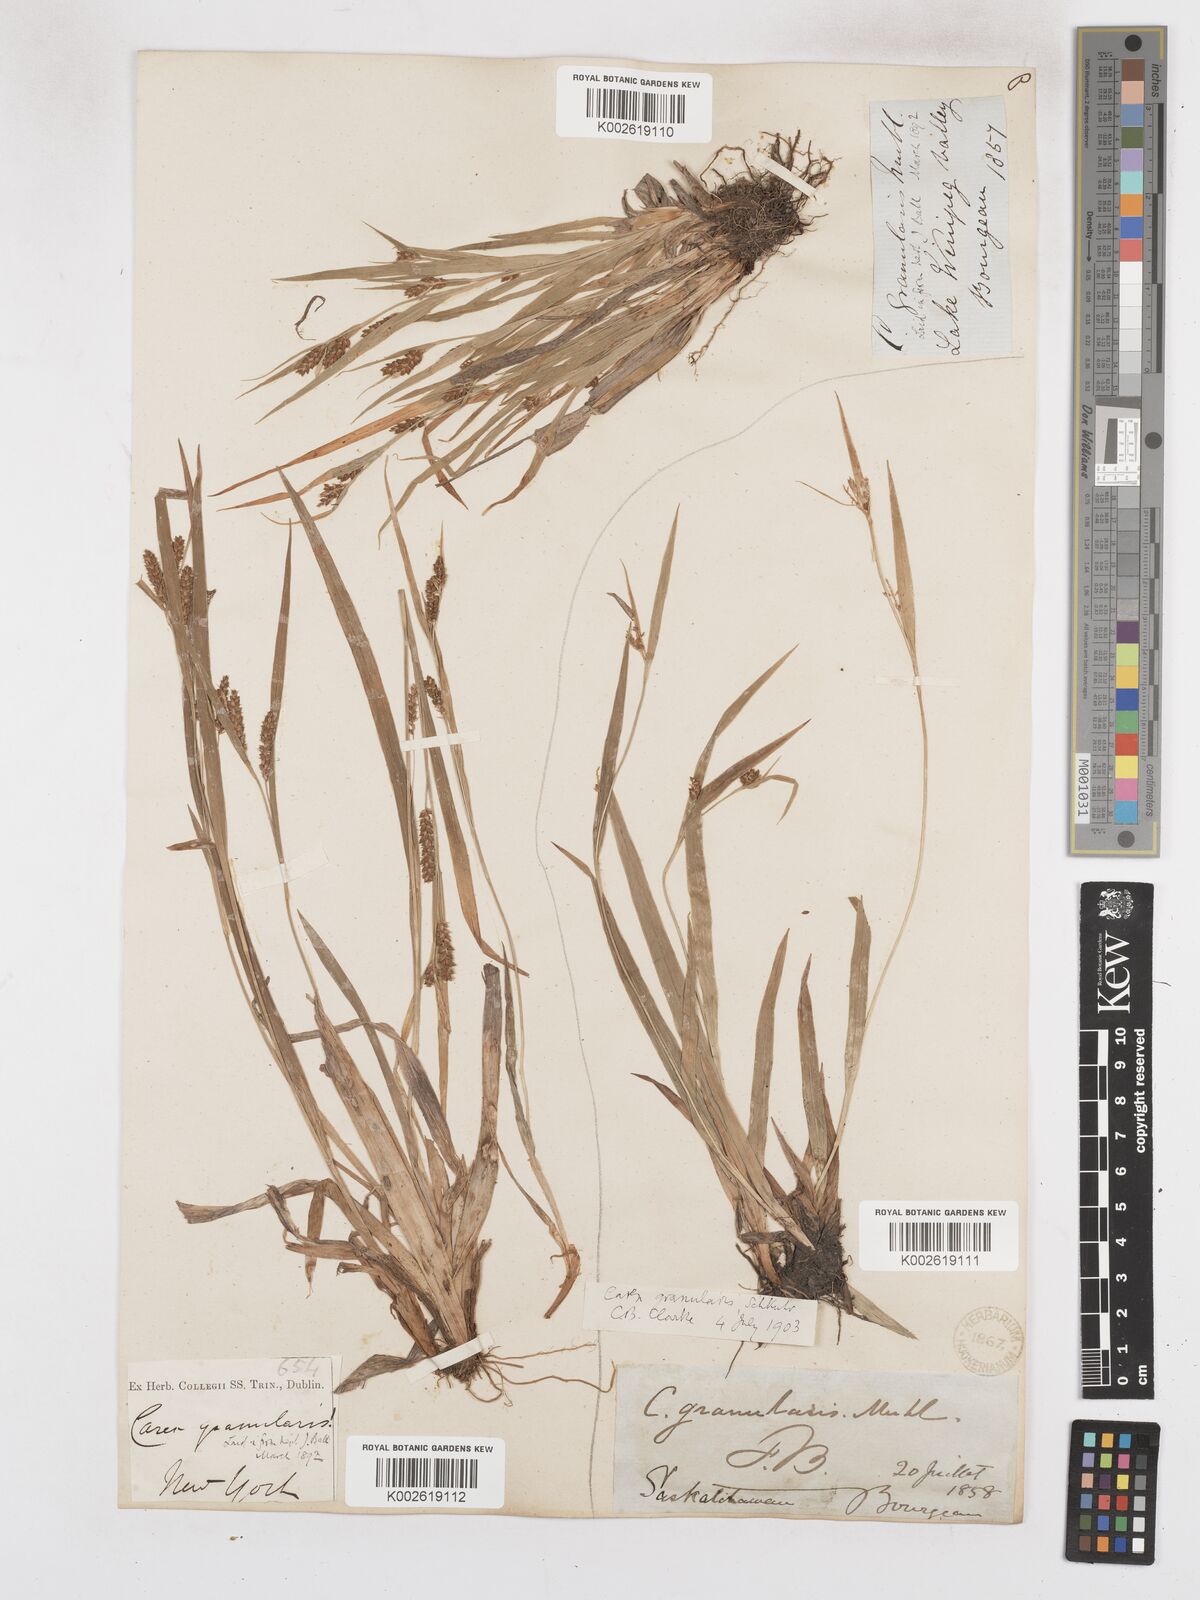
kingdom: Plantae
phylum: Tracheophyta
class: Liliopsida
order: Poales
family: Cyperaceae
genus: Carex
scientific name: Carex granularis
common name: Granular sedge
